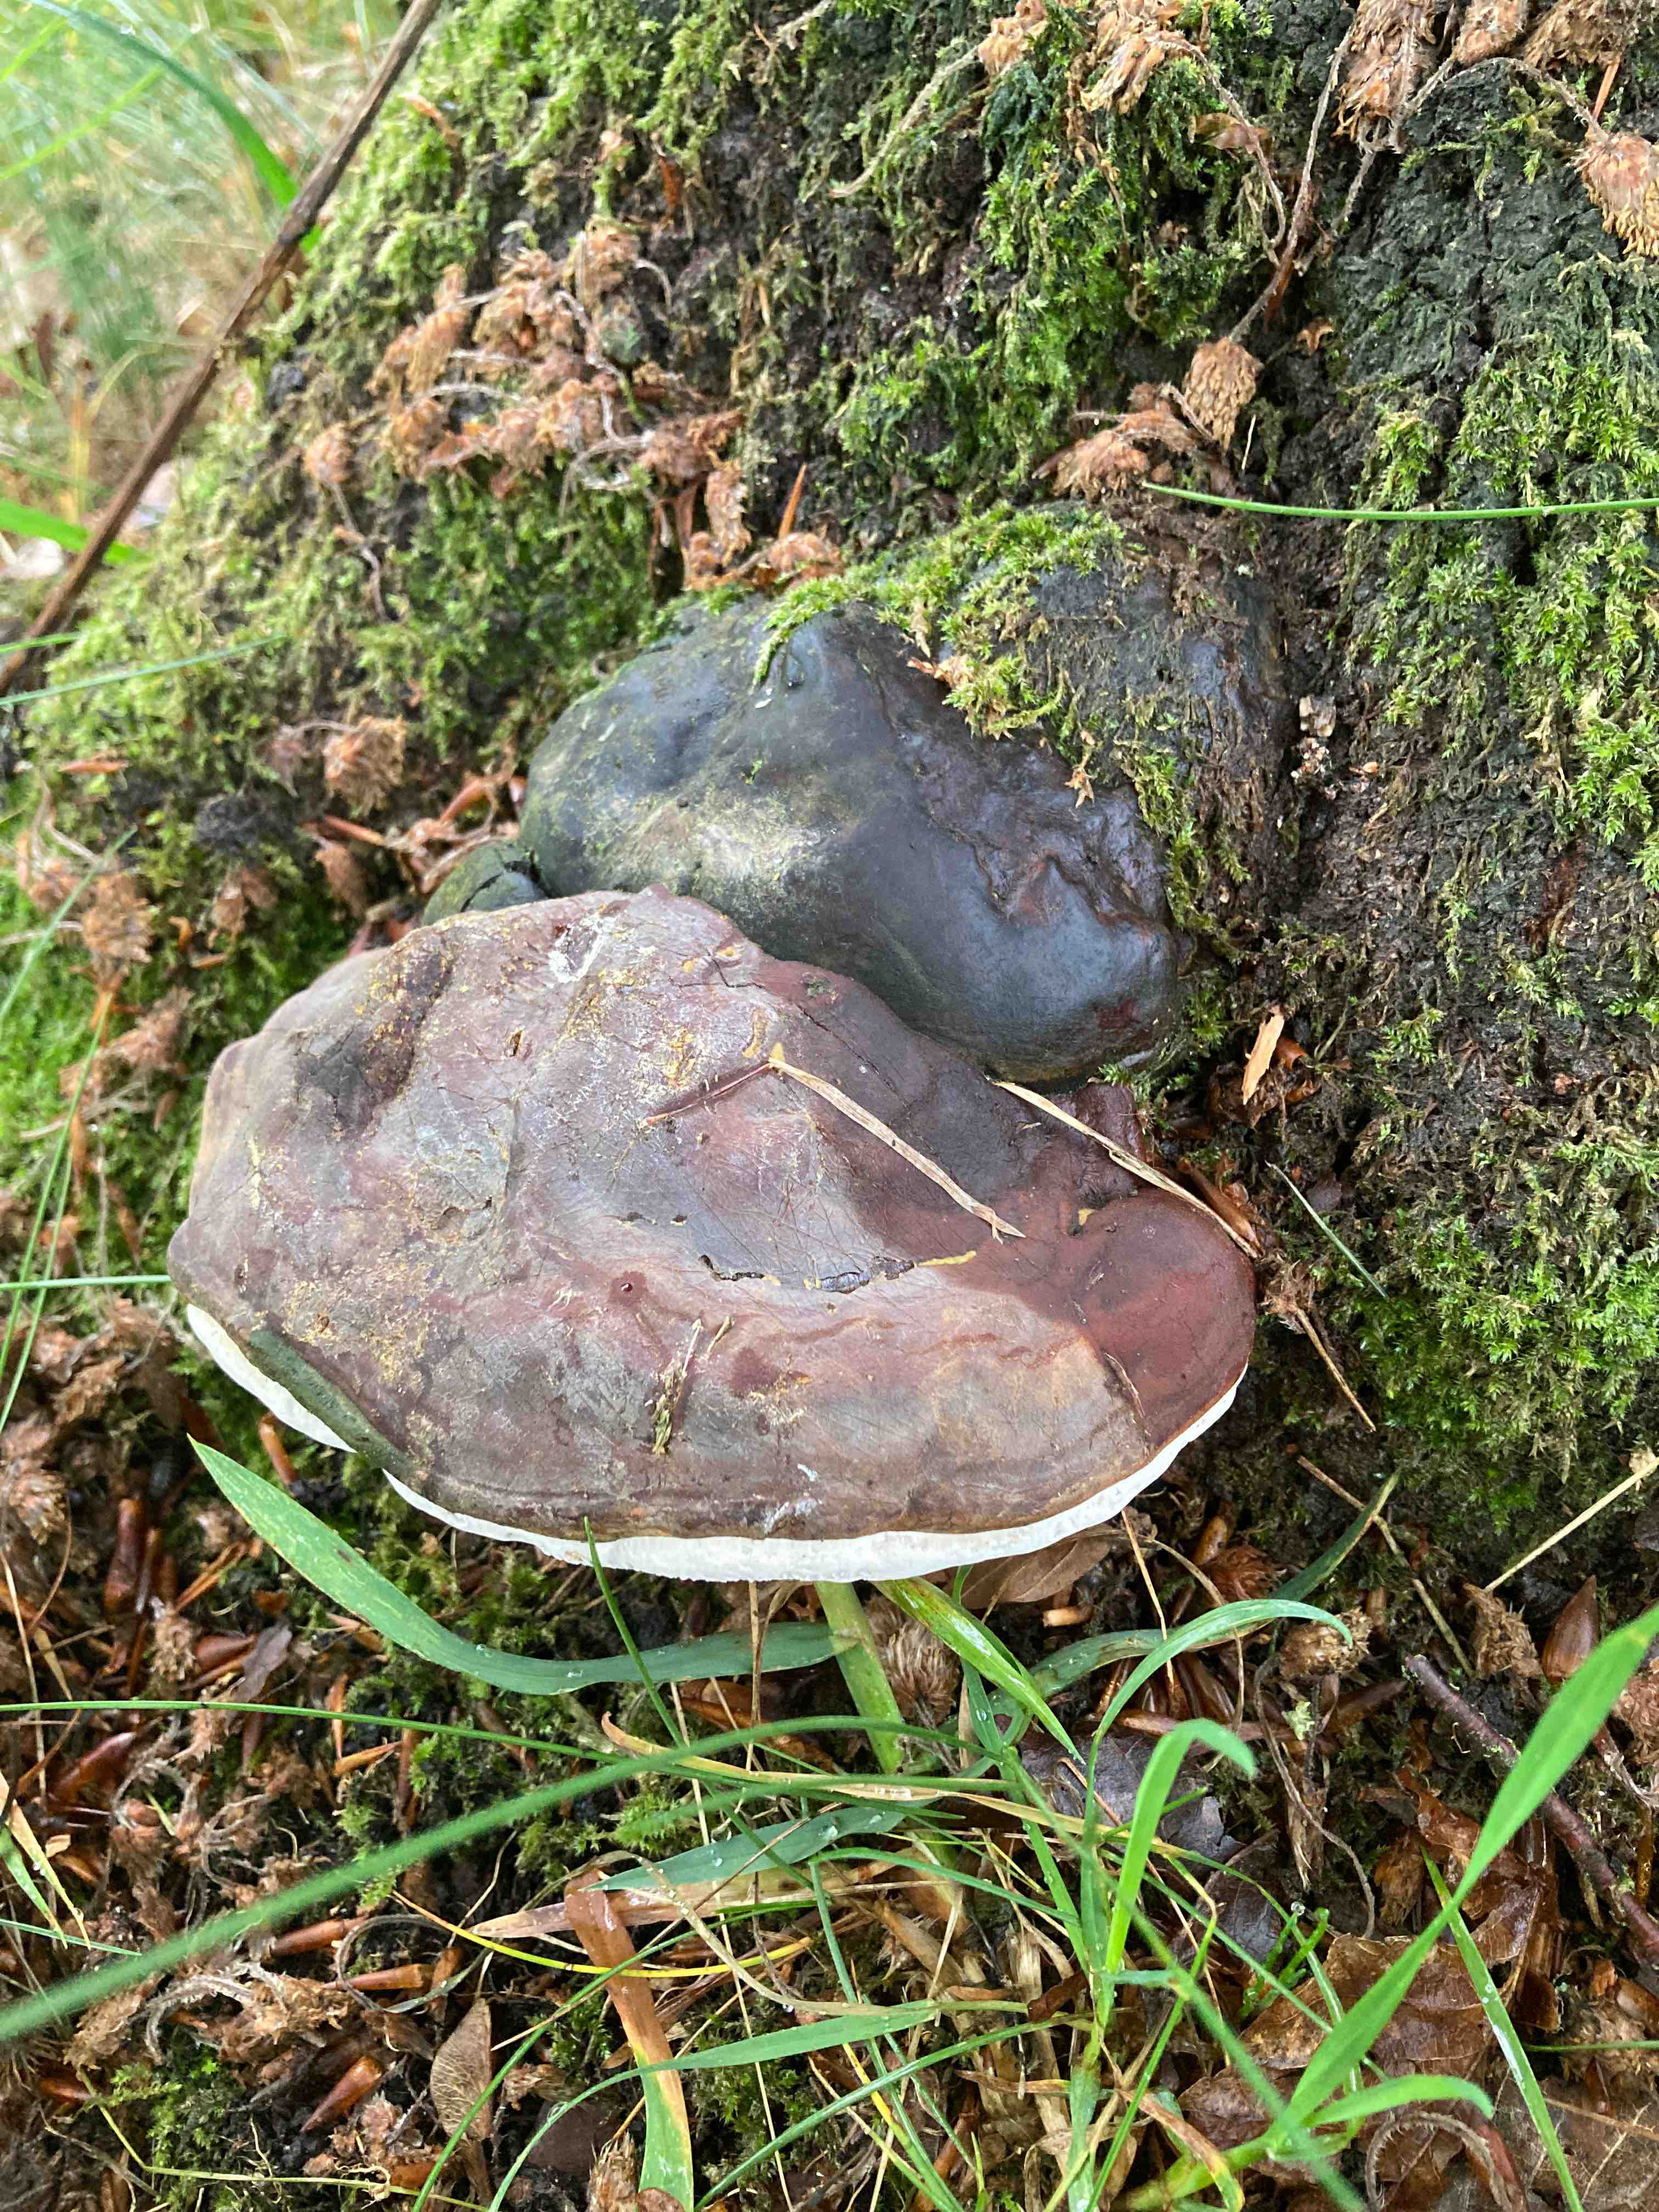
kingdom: Fungi
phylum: Basidiomycota
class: Agaricomycetes
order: Polyporales
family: Polyporaceae
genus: Ganoderma
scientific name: Ganoderma pfeifferi
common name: kobberrød lakporesvamp
